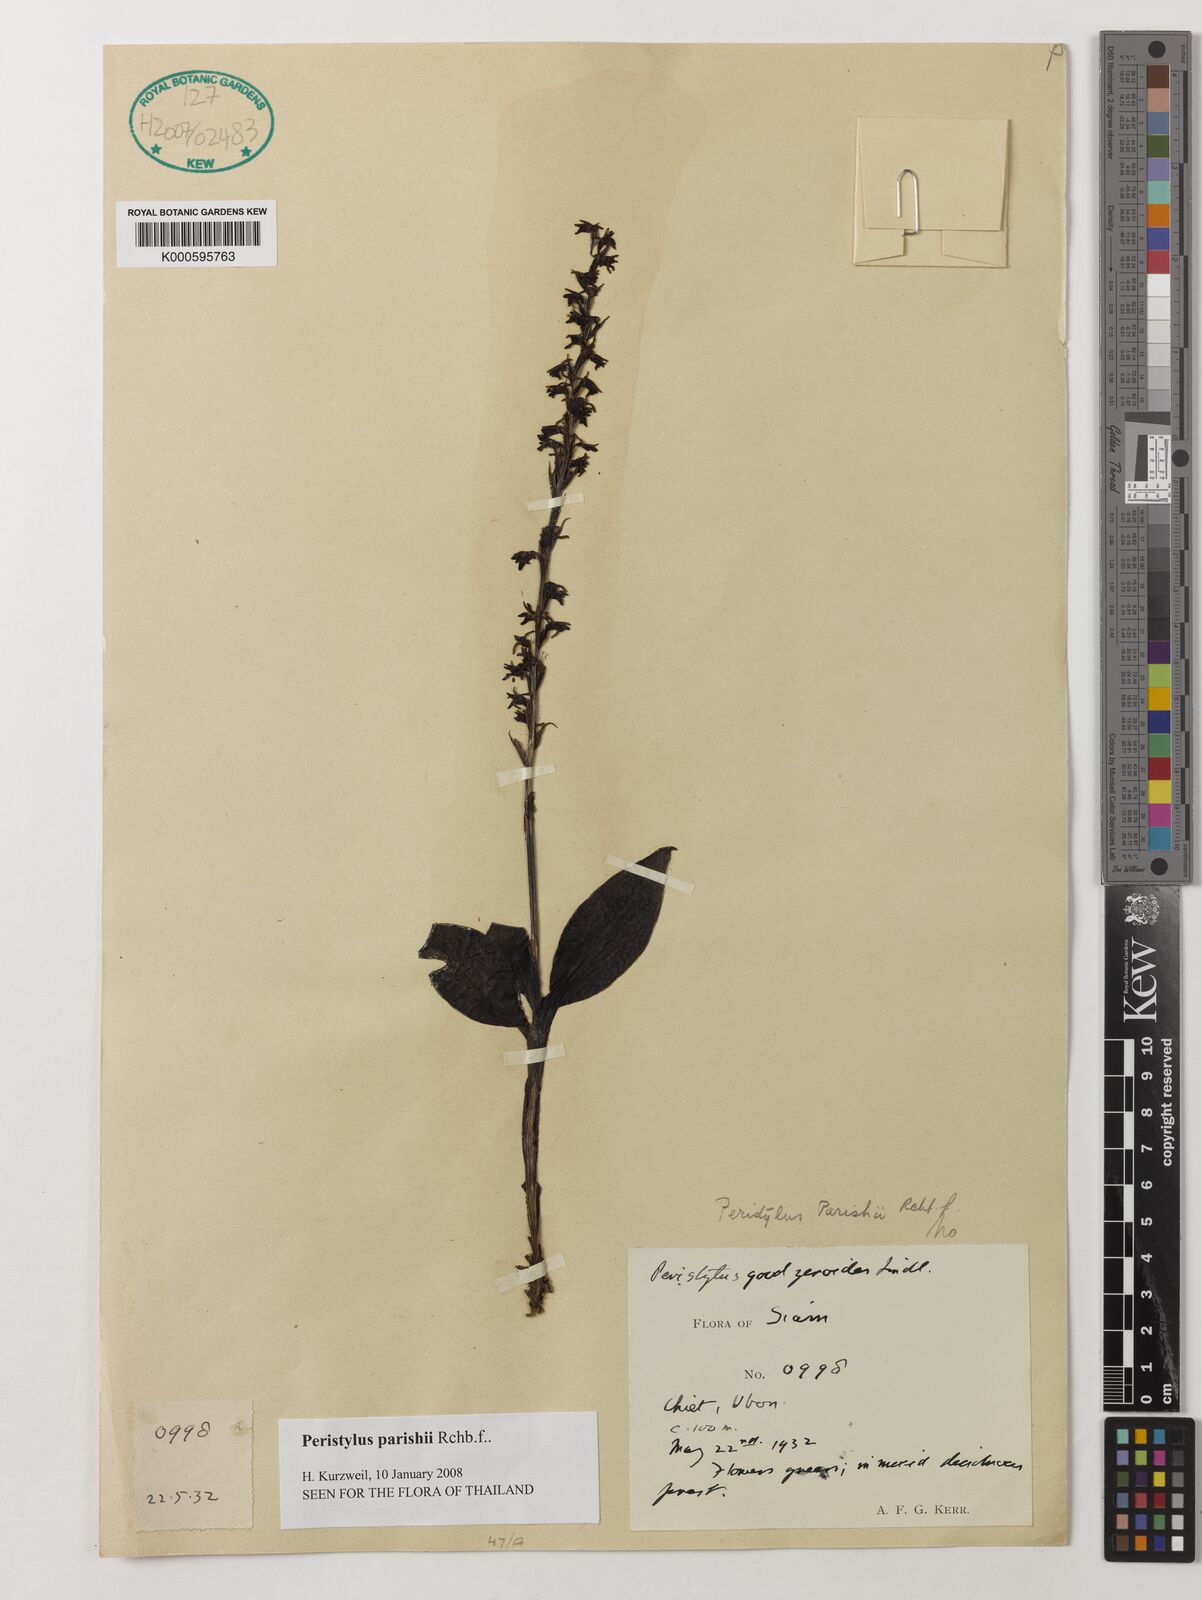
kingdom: Plantae
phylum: Tracheophyta
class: Liliopsida
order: Asparagales
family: Orchidaceae
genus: Peristylus
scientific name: Peristylus parishii
